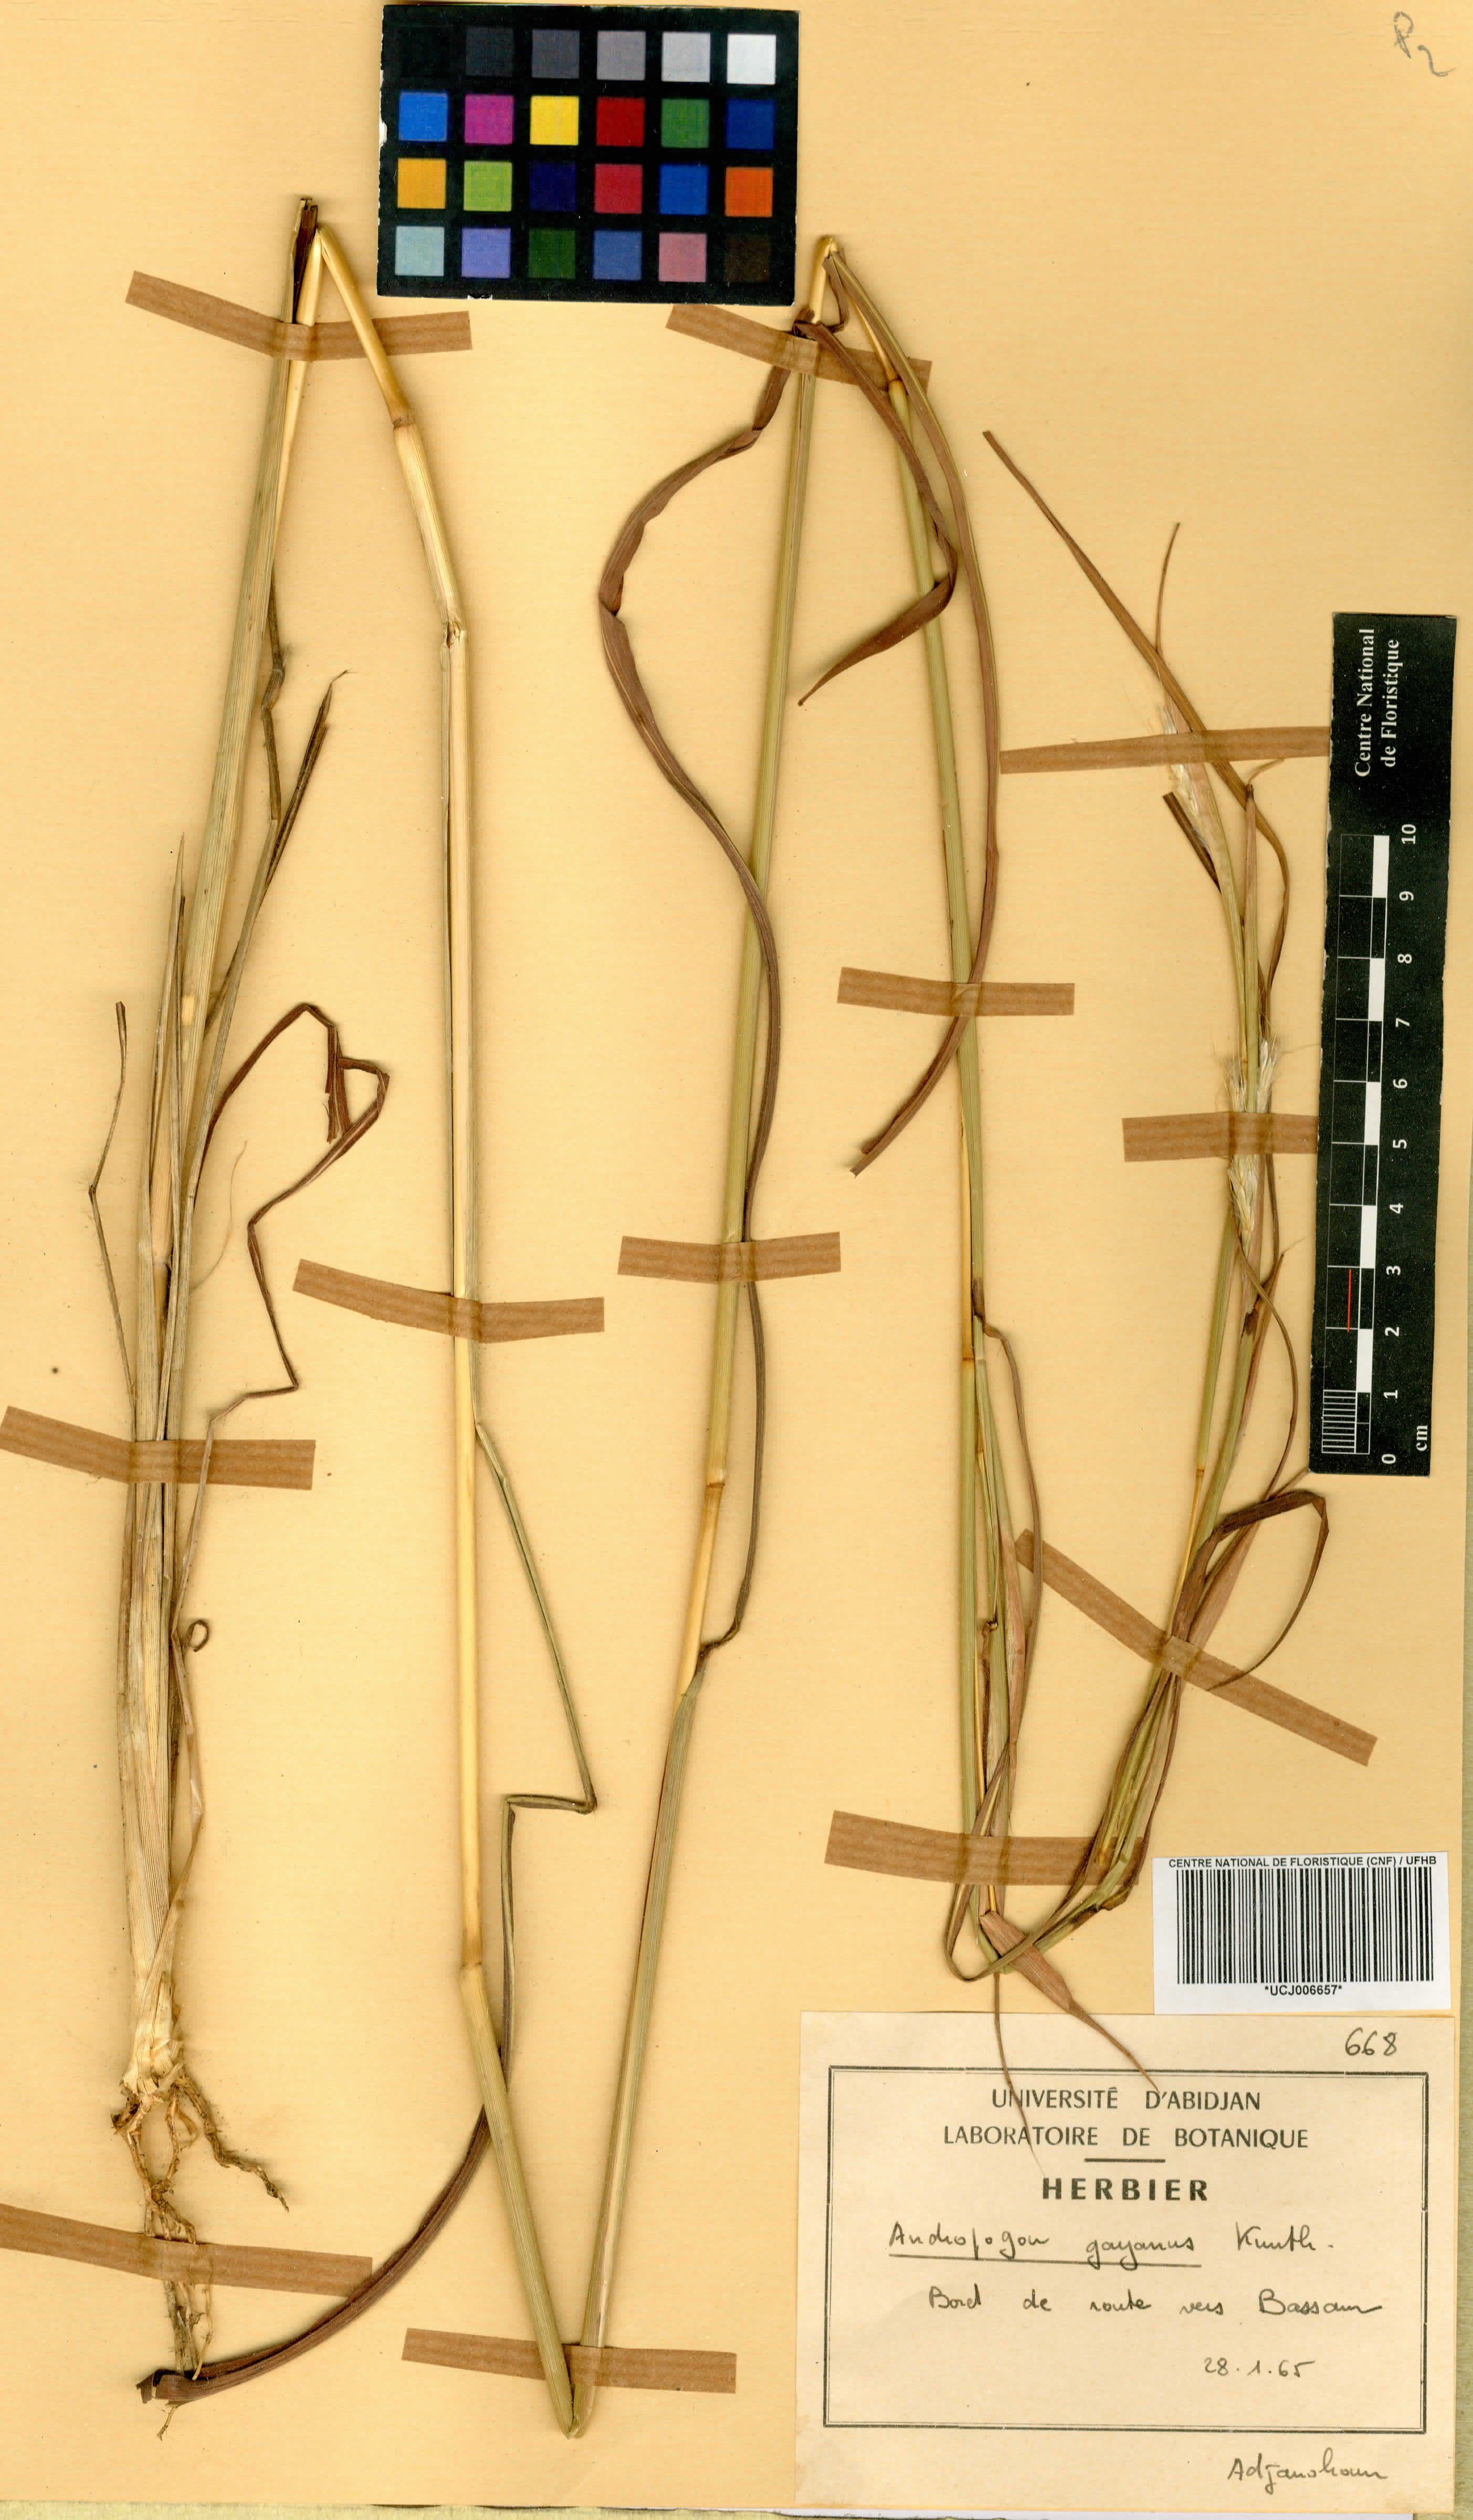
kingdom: Plantae
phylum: Tracheophyta
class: Liliopsida
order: Poales
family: Poaceae
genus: Andropogon
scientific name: Andropogon gayanus
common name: Tambuki grass
